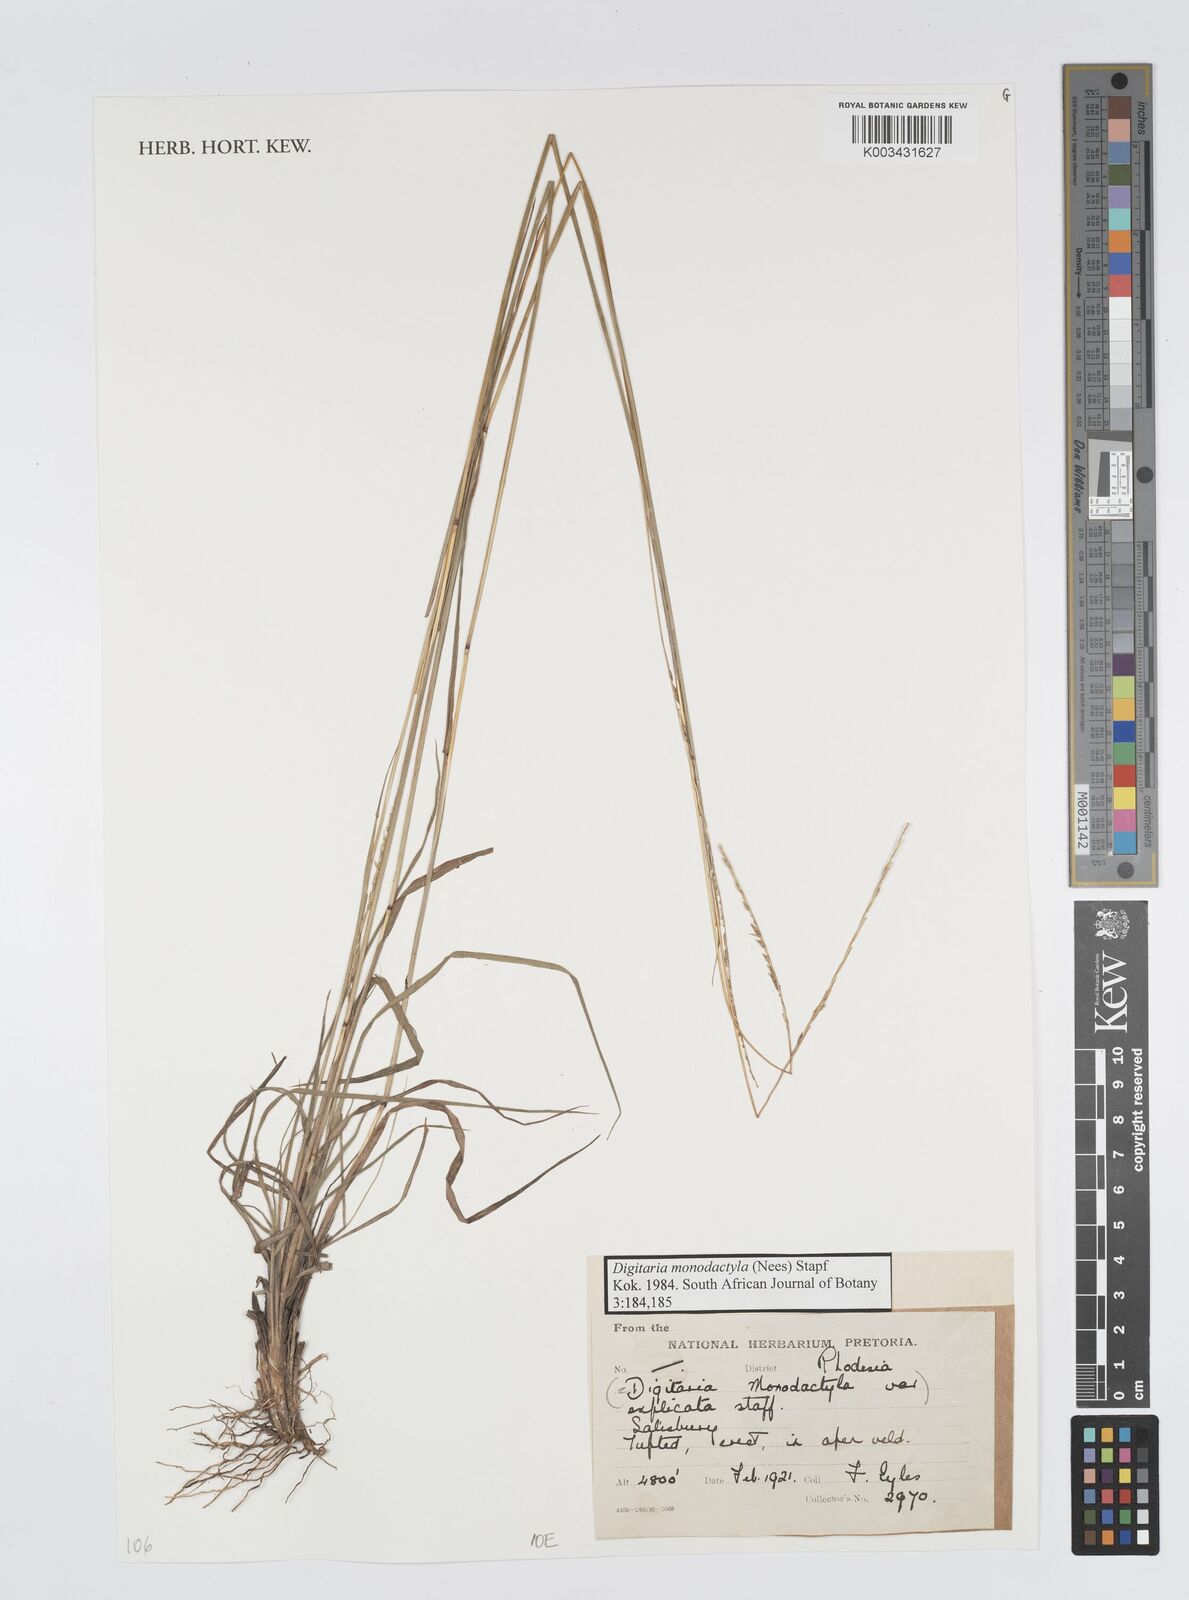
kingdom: Plantae
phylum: Tracheophyta
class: Liliopsida
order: Poales
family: Poaceae
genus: Digitaria
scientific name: Digitaria monodactyla
